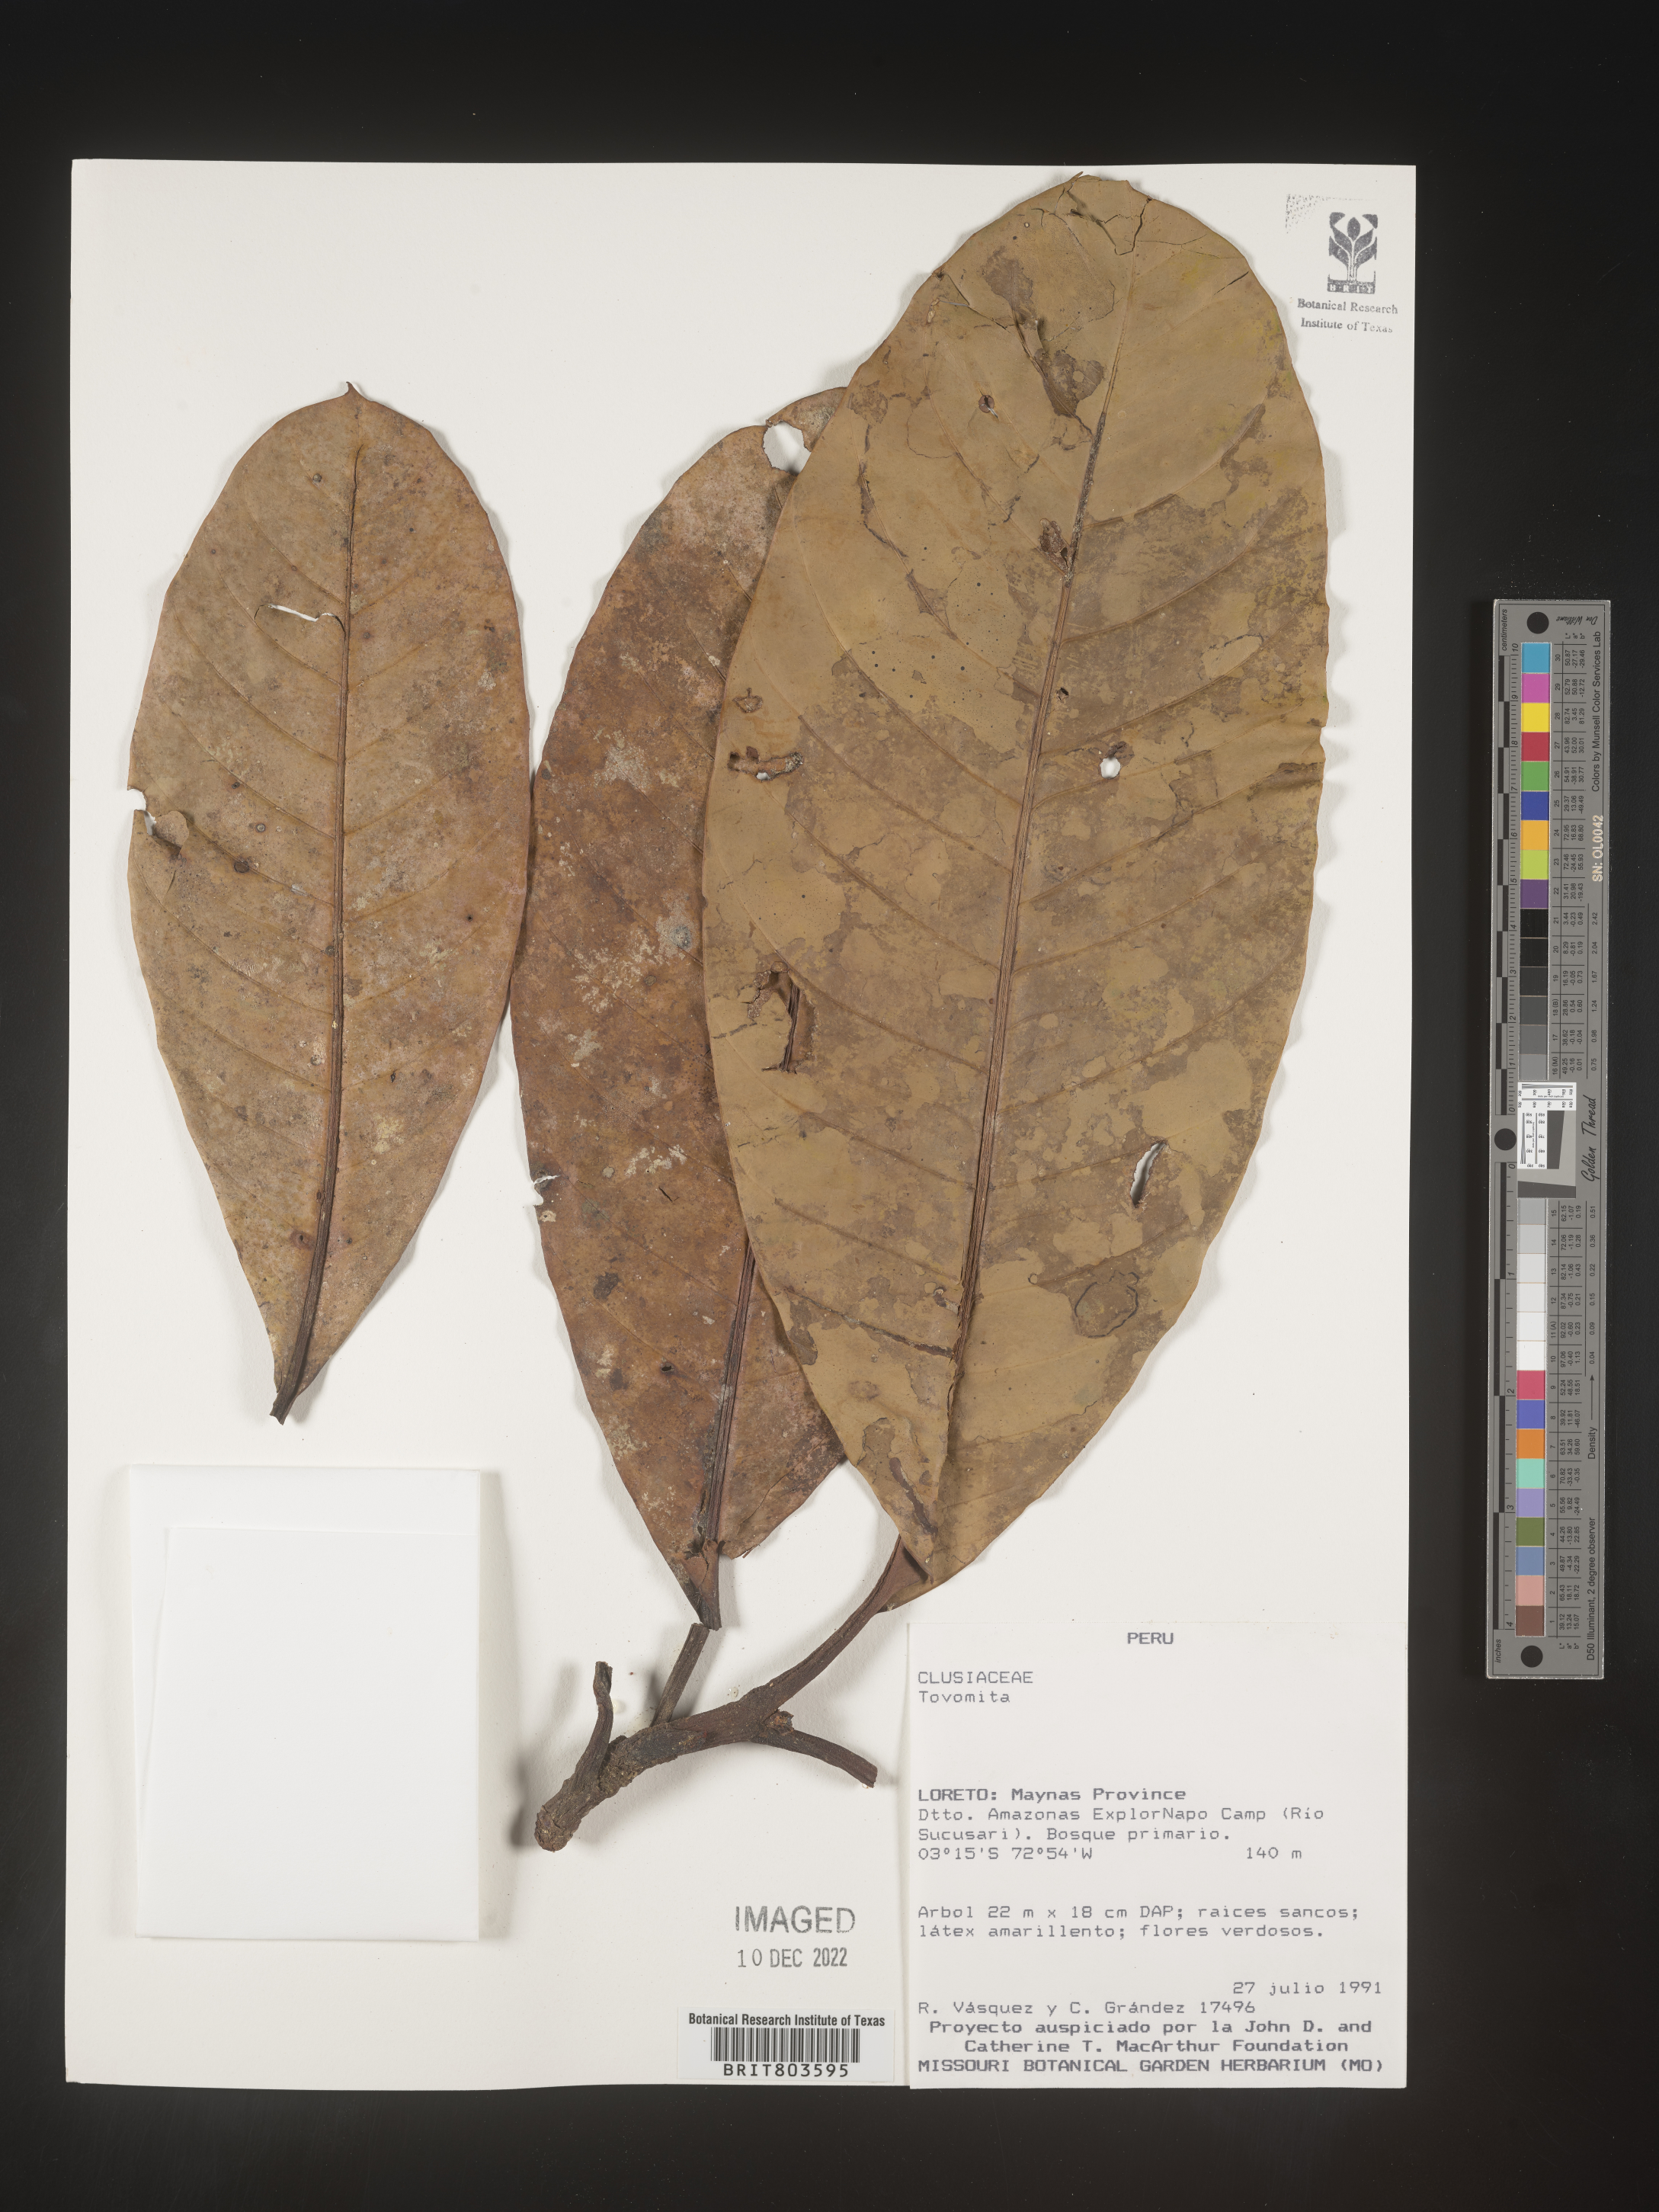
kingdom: Plantae
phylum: Tracheophyta
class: Magnoliopsida
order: Malpighiales
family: Clusiaceae
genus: Tovomita
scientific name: Tovomita
